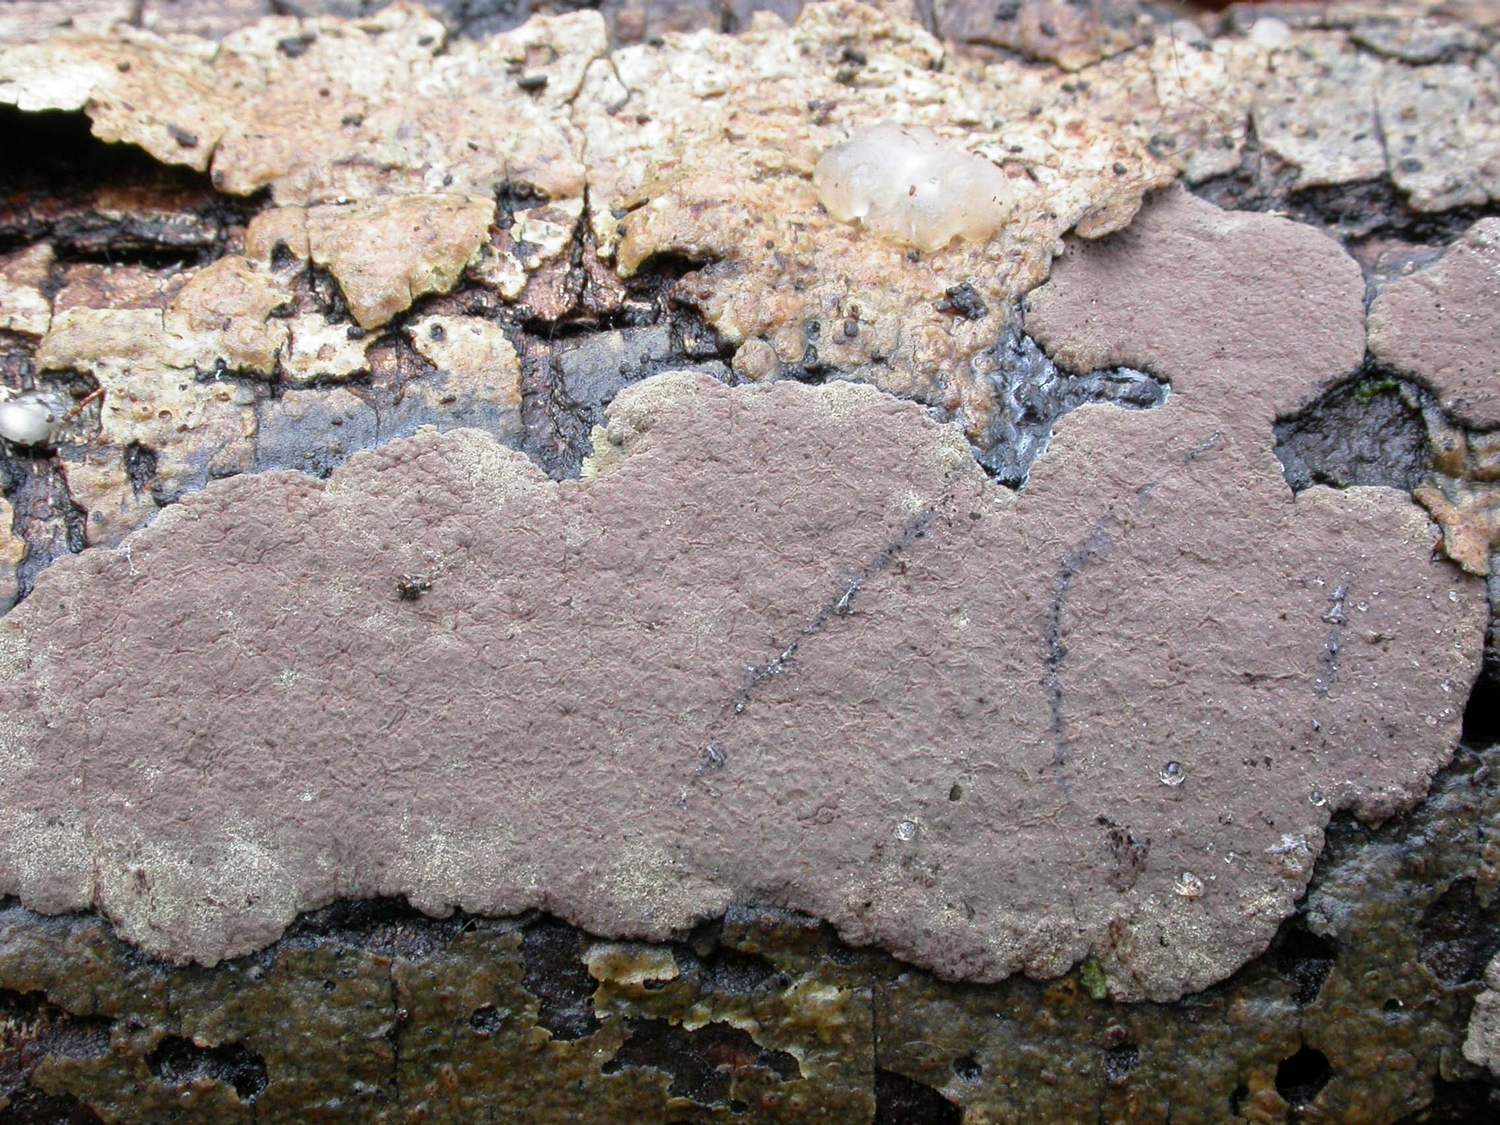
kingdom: Fungi
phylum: Ascomycota
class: Sordariomycetes
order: Xylariales
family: Hypoxylaceae
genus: Hypoxylon
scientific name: Hypoxylon petriniae
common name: nedsænket kulbær
